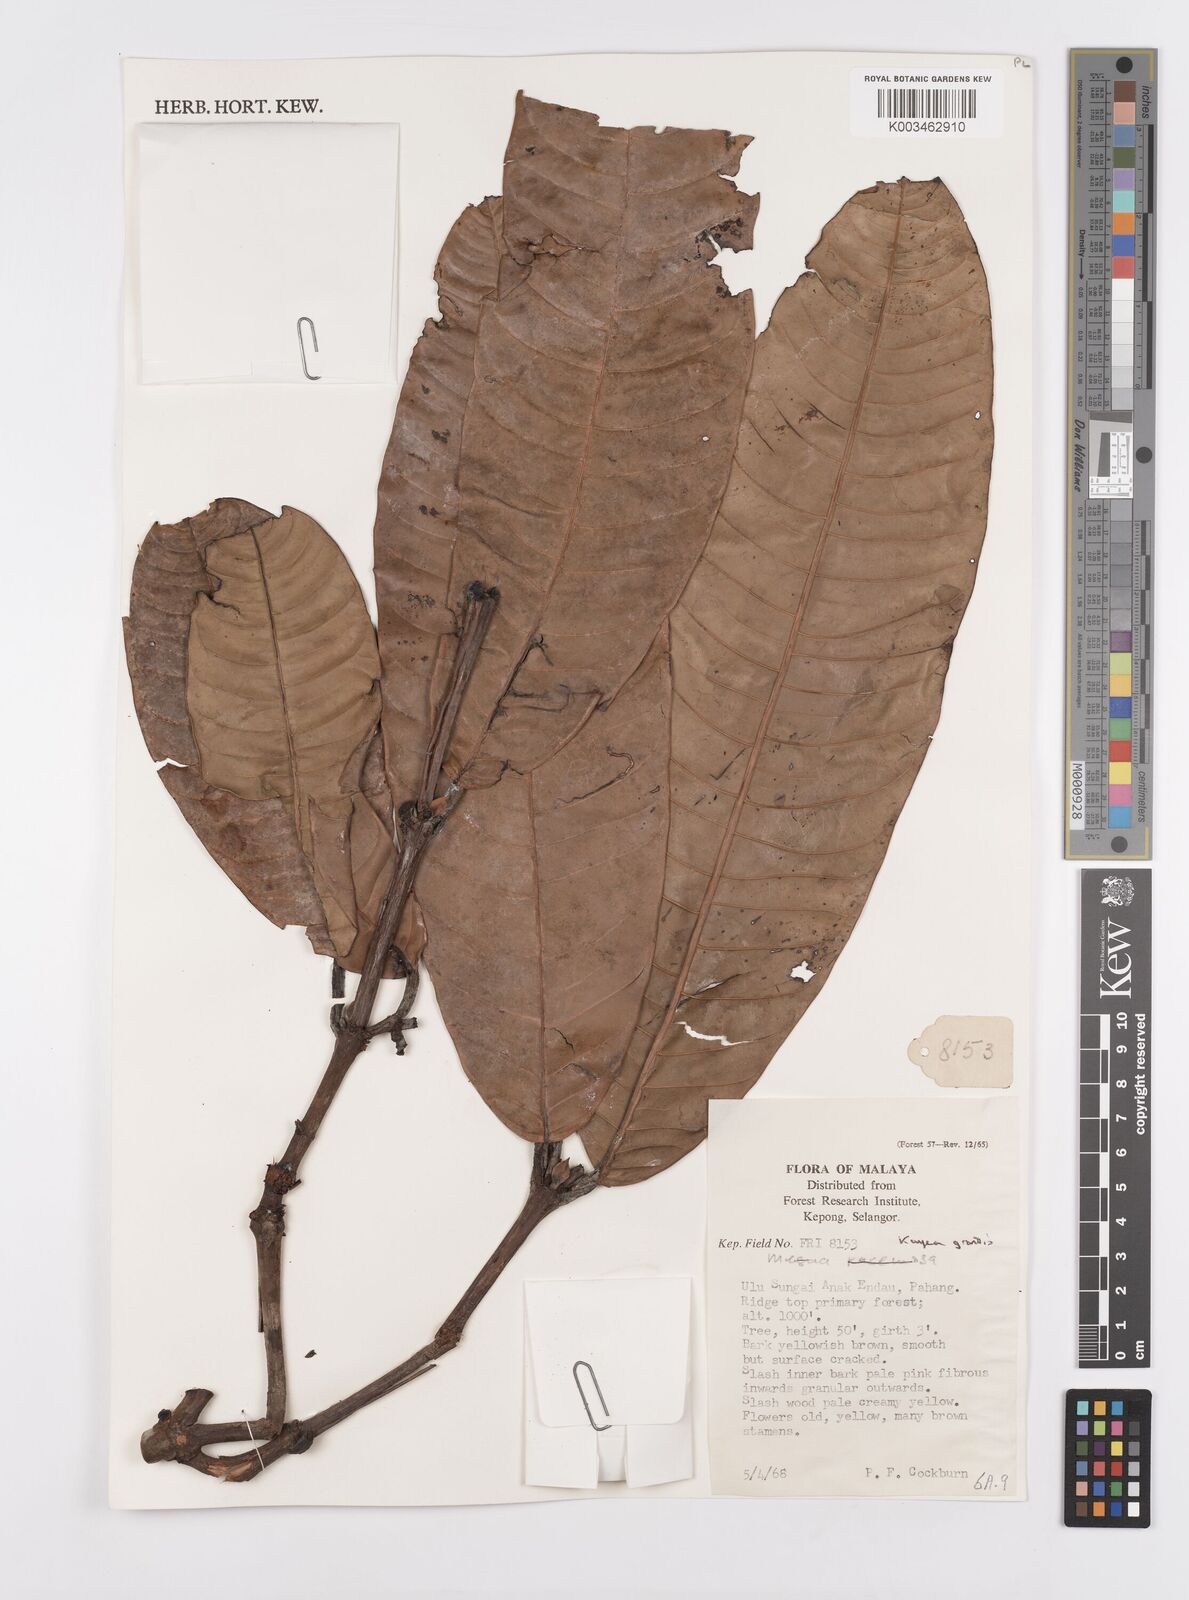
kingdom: Plantae
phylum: Tracheophyta
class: Magnoliopsida
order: Malpighiales
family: Calophyllaceae
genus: Kayea
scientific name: Kayea grandis
